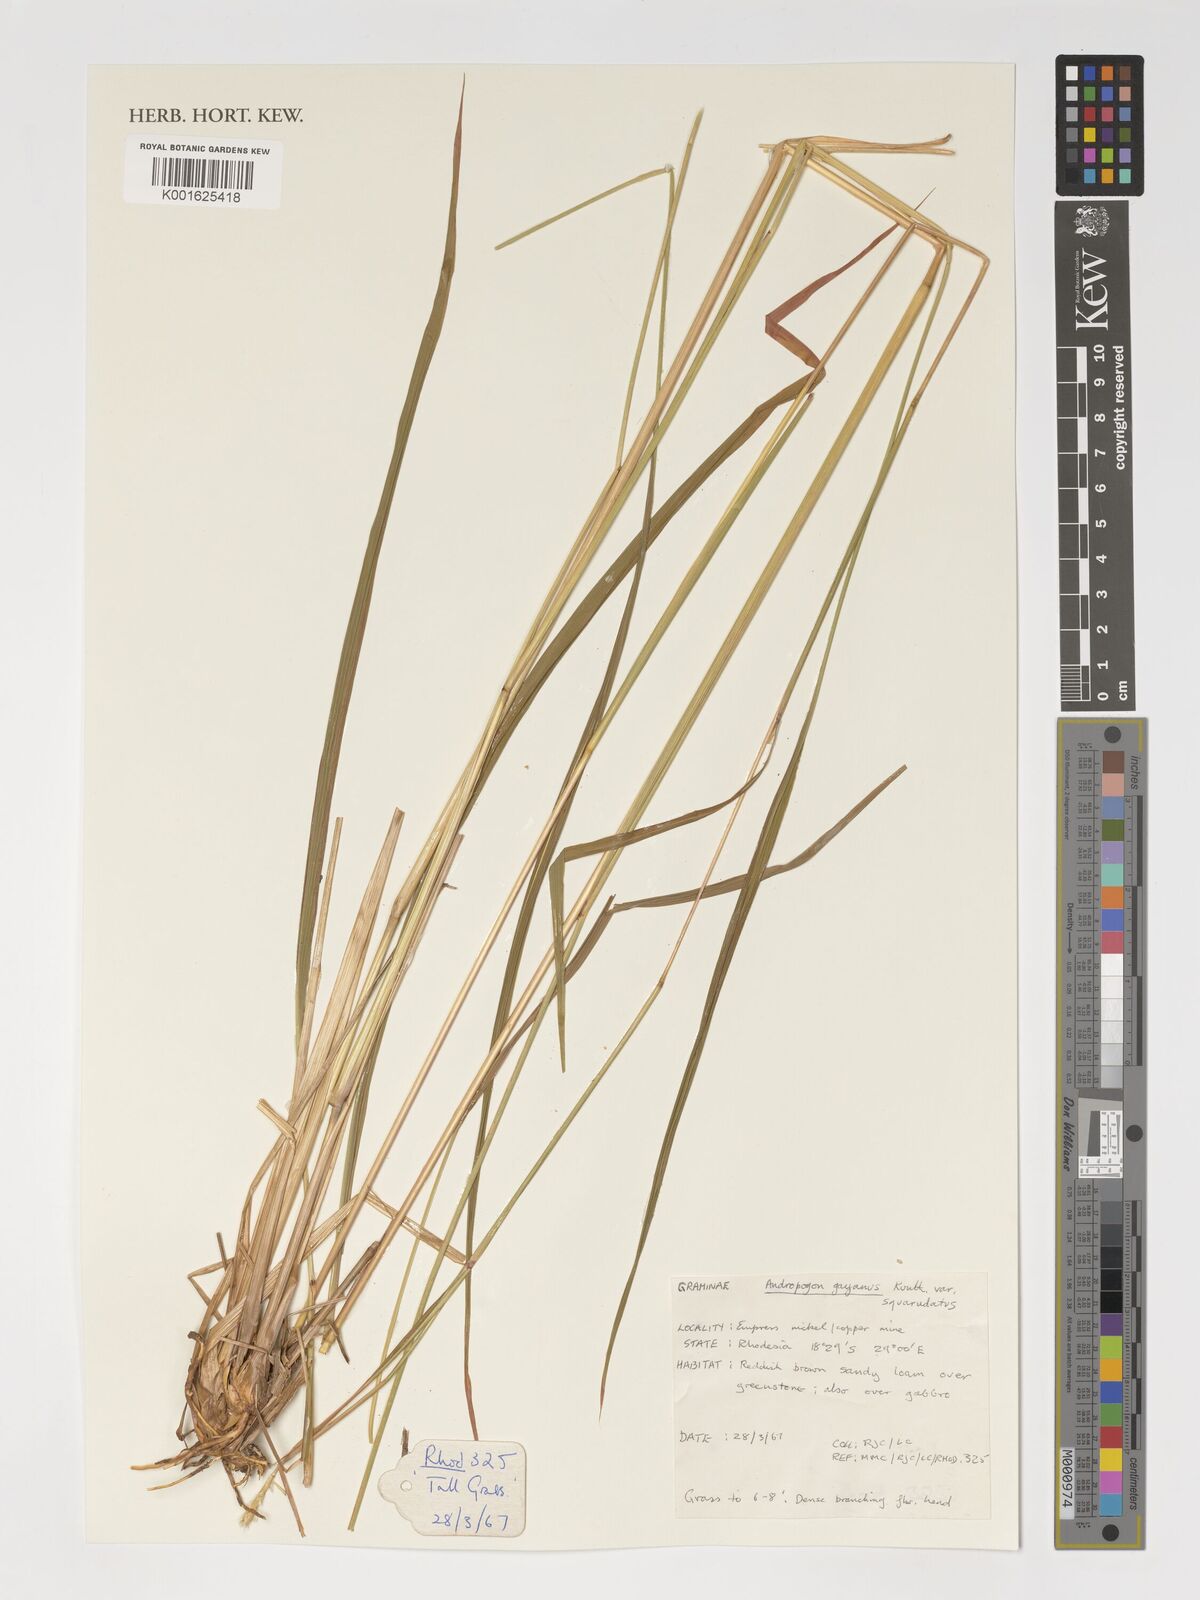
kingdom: Plantae
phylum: Tracheophyta
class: Liliopsida
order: Poales
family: Poaceae
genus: Andropogon
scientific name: Andropogon gayanus
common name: Tambuki grass
